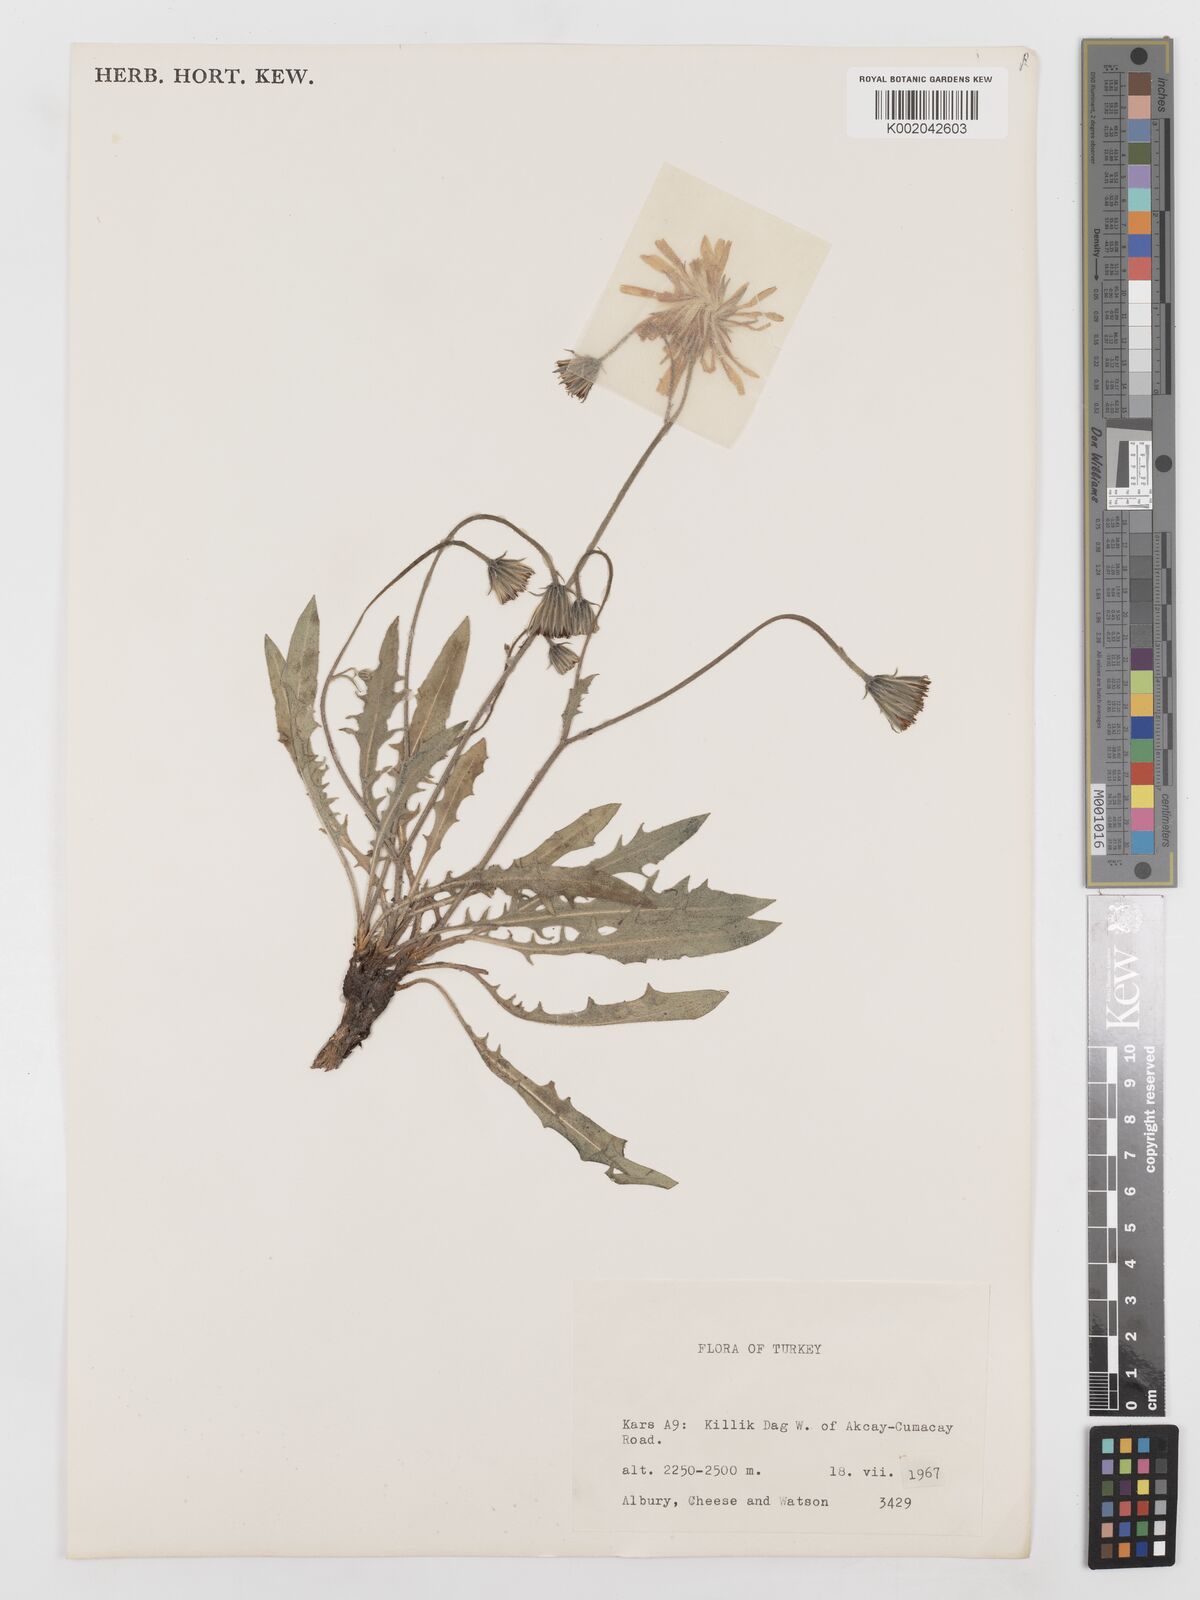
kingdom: Plantae
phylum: Tracheophyta
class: Magnoliopsida
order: Asterales
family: Asteraceae
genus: Leontodon
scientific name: Leontodon
